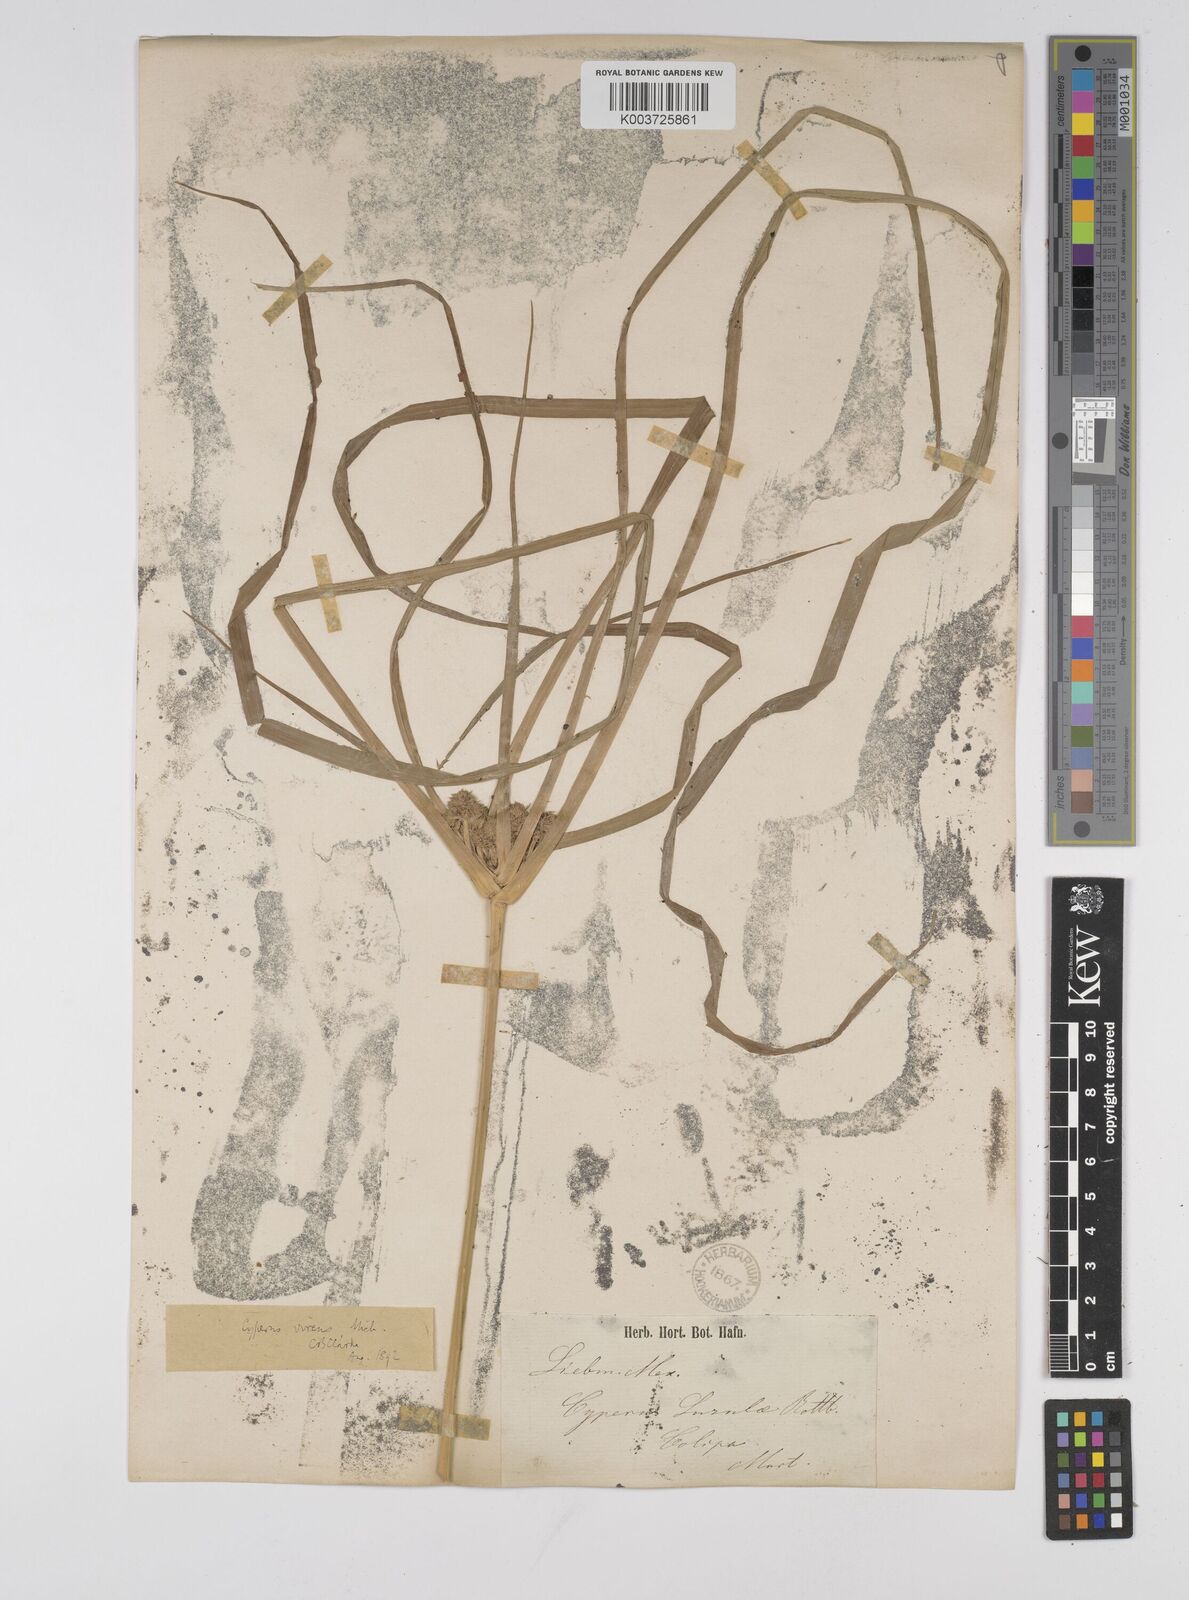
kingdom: Plantae
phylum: Tracheophyta
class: Liliopsida
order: Poales
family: Cyperaceae
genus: Cyperus
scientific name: Cyperus virens
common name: Green flatsedge
